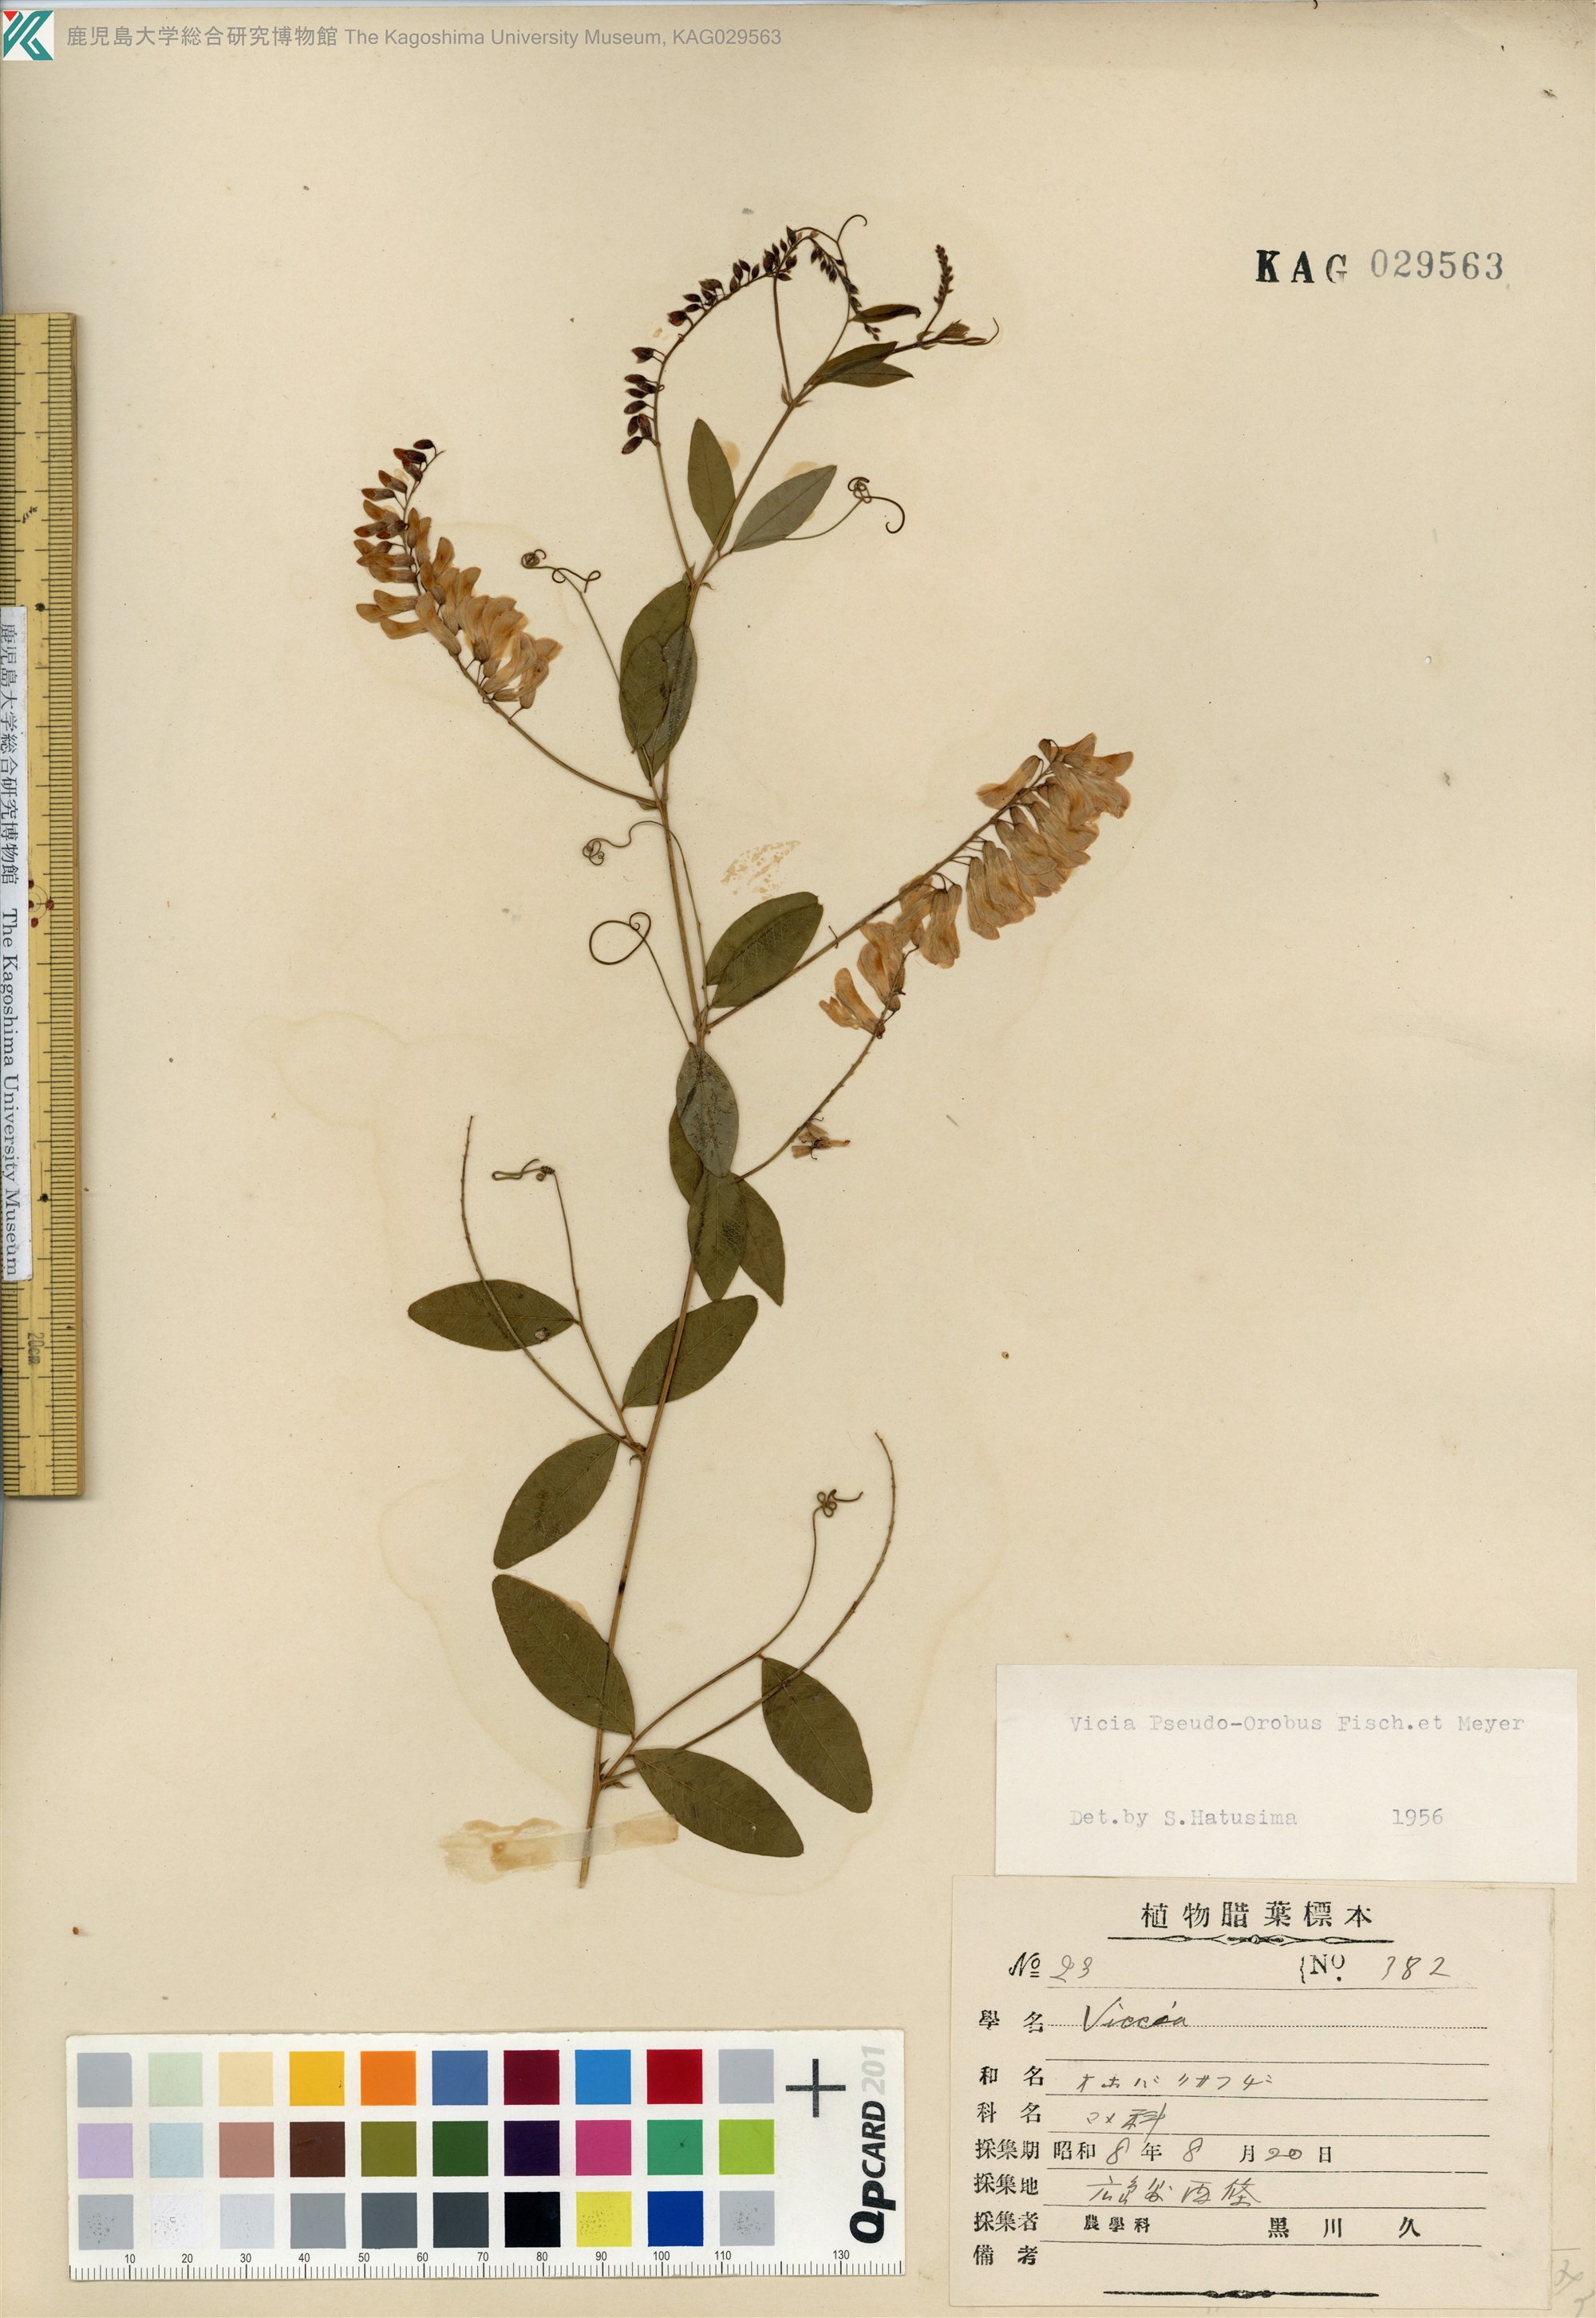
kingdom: Plantae
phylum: Tracheophyta
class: Magnoliopsida
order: Fabales
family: Fabaceae
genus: Vicia
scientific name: Vicia pseudo-orobus
